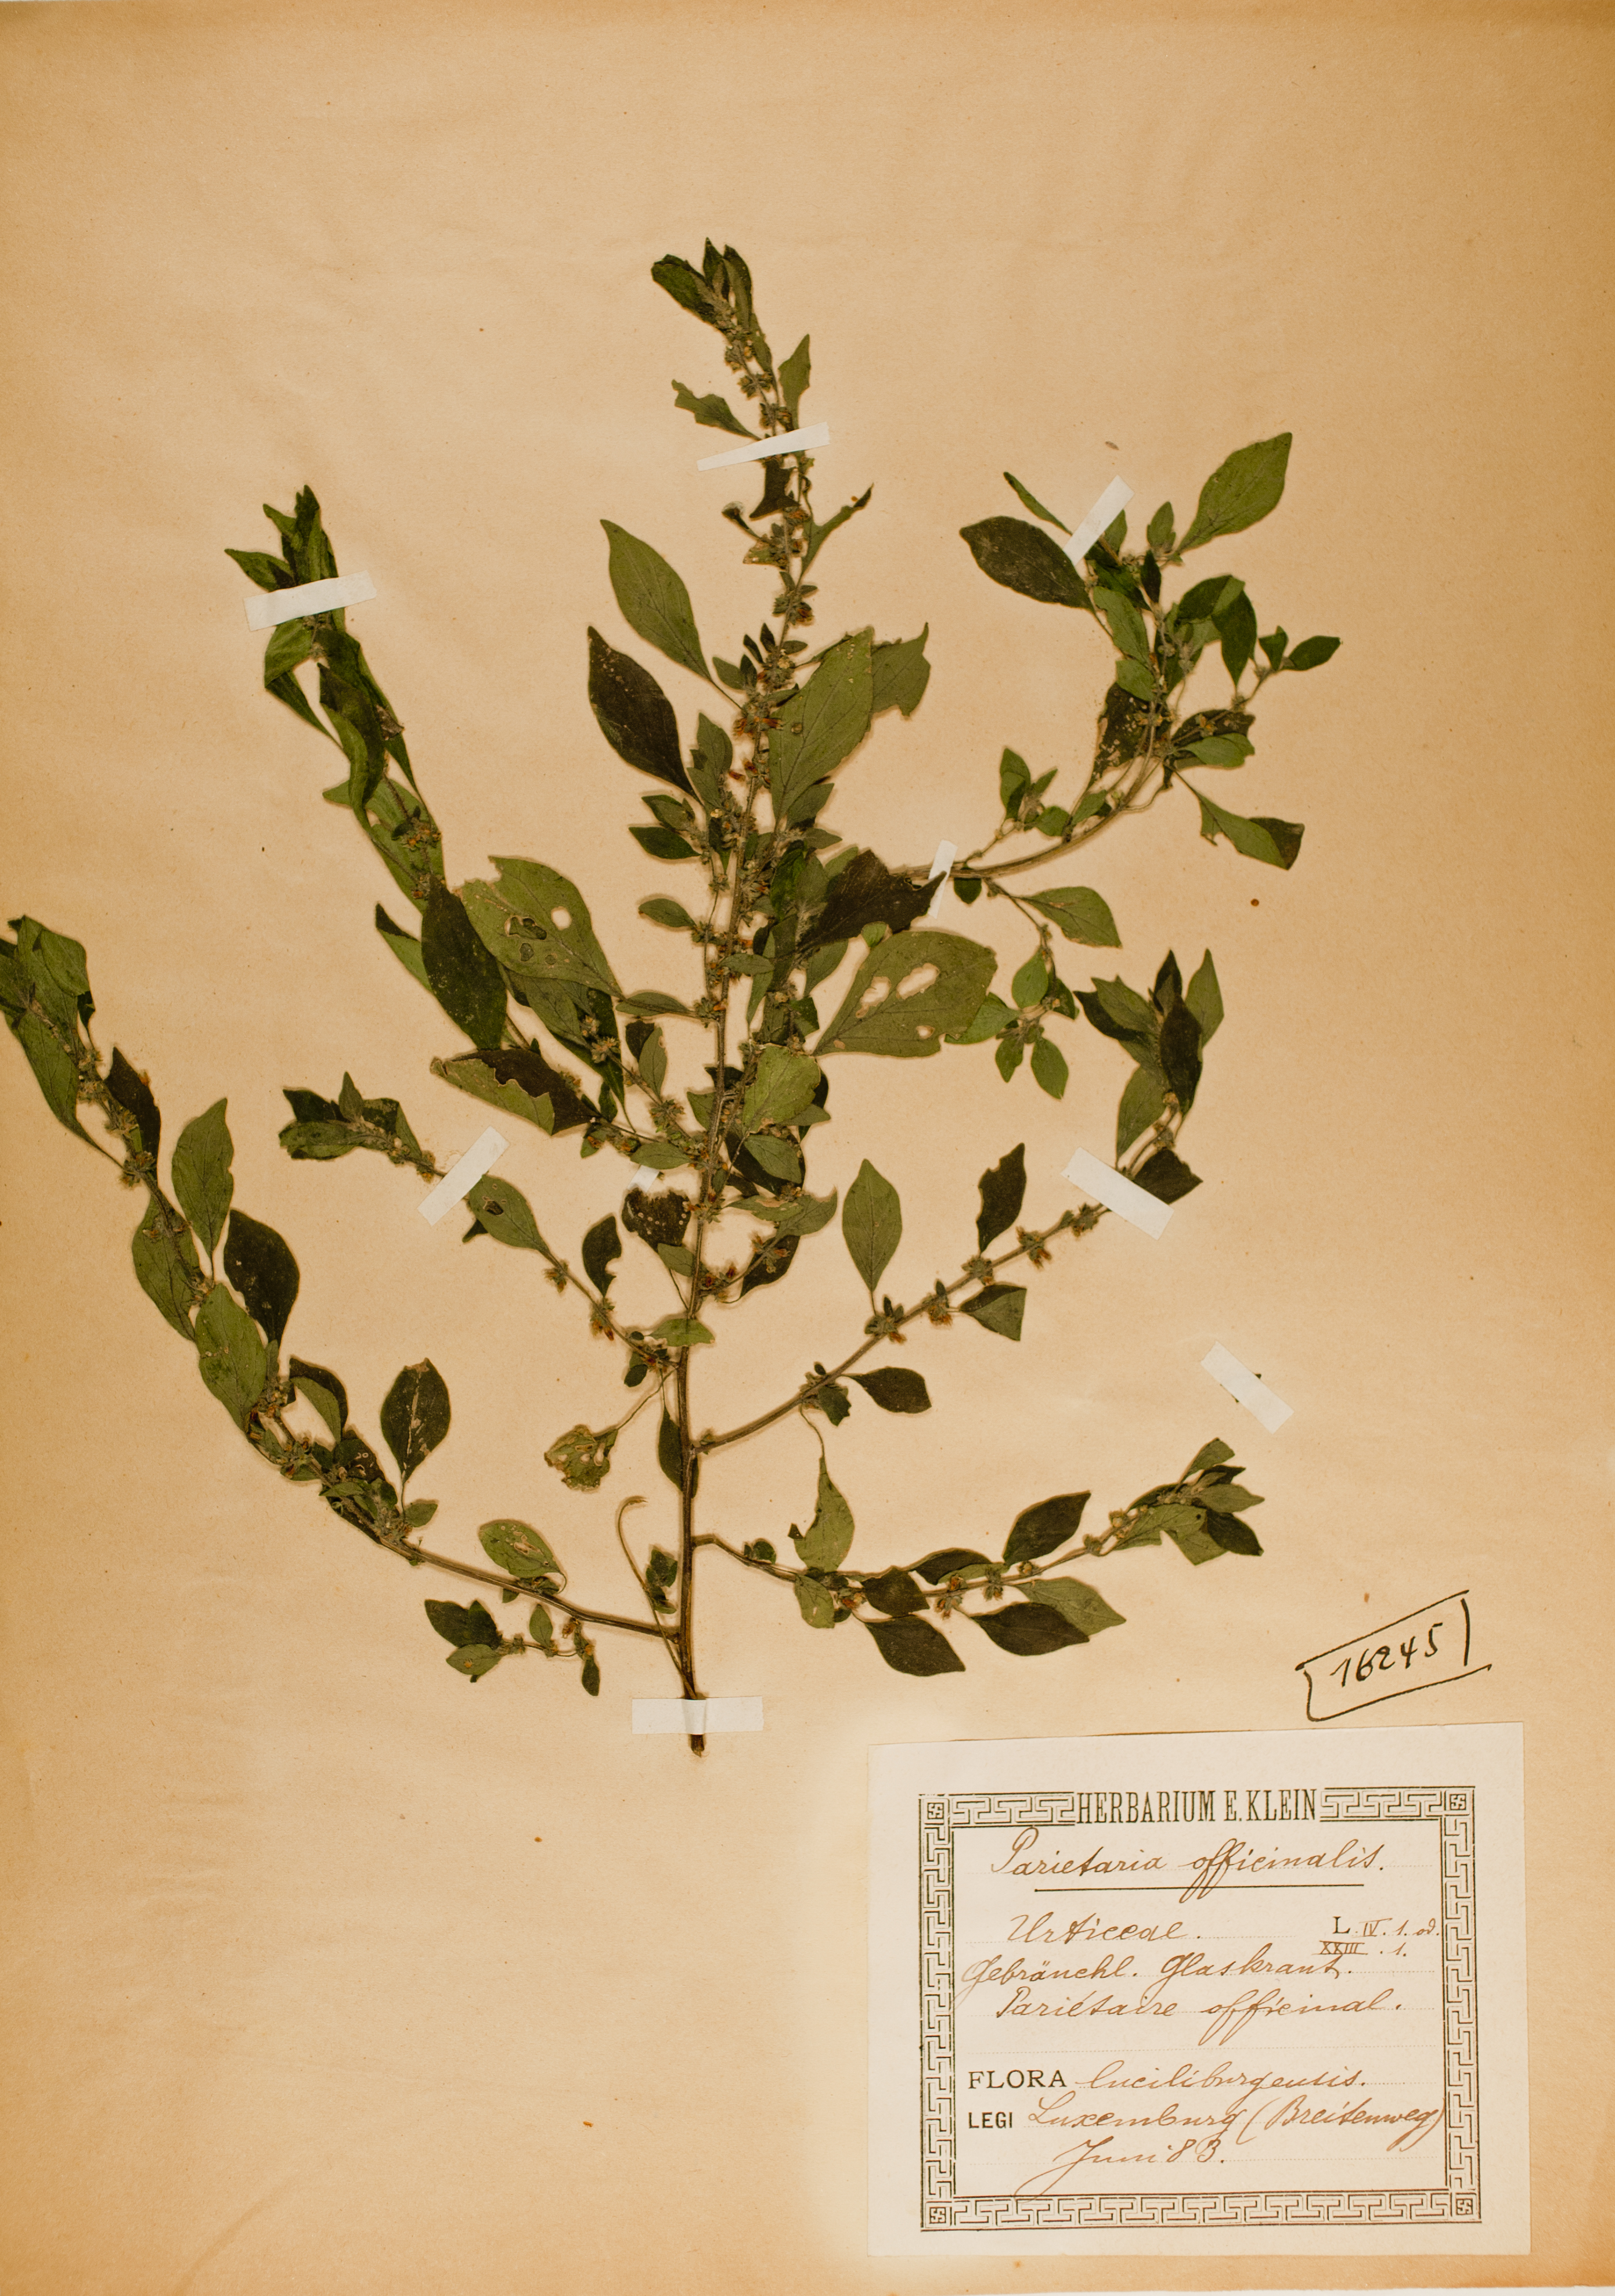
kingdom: Plantae
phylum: Tracheophyta
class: Magnoliopsida
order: Rosales
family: Urticaceae
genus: Parietaria
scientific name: Parietaria officinalis
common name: Eastern pellitory-of-the-wall
